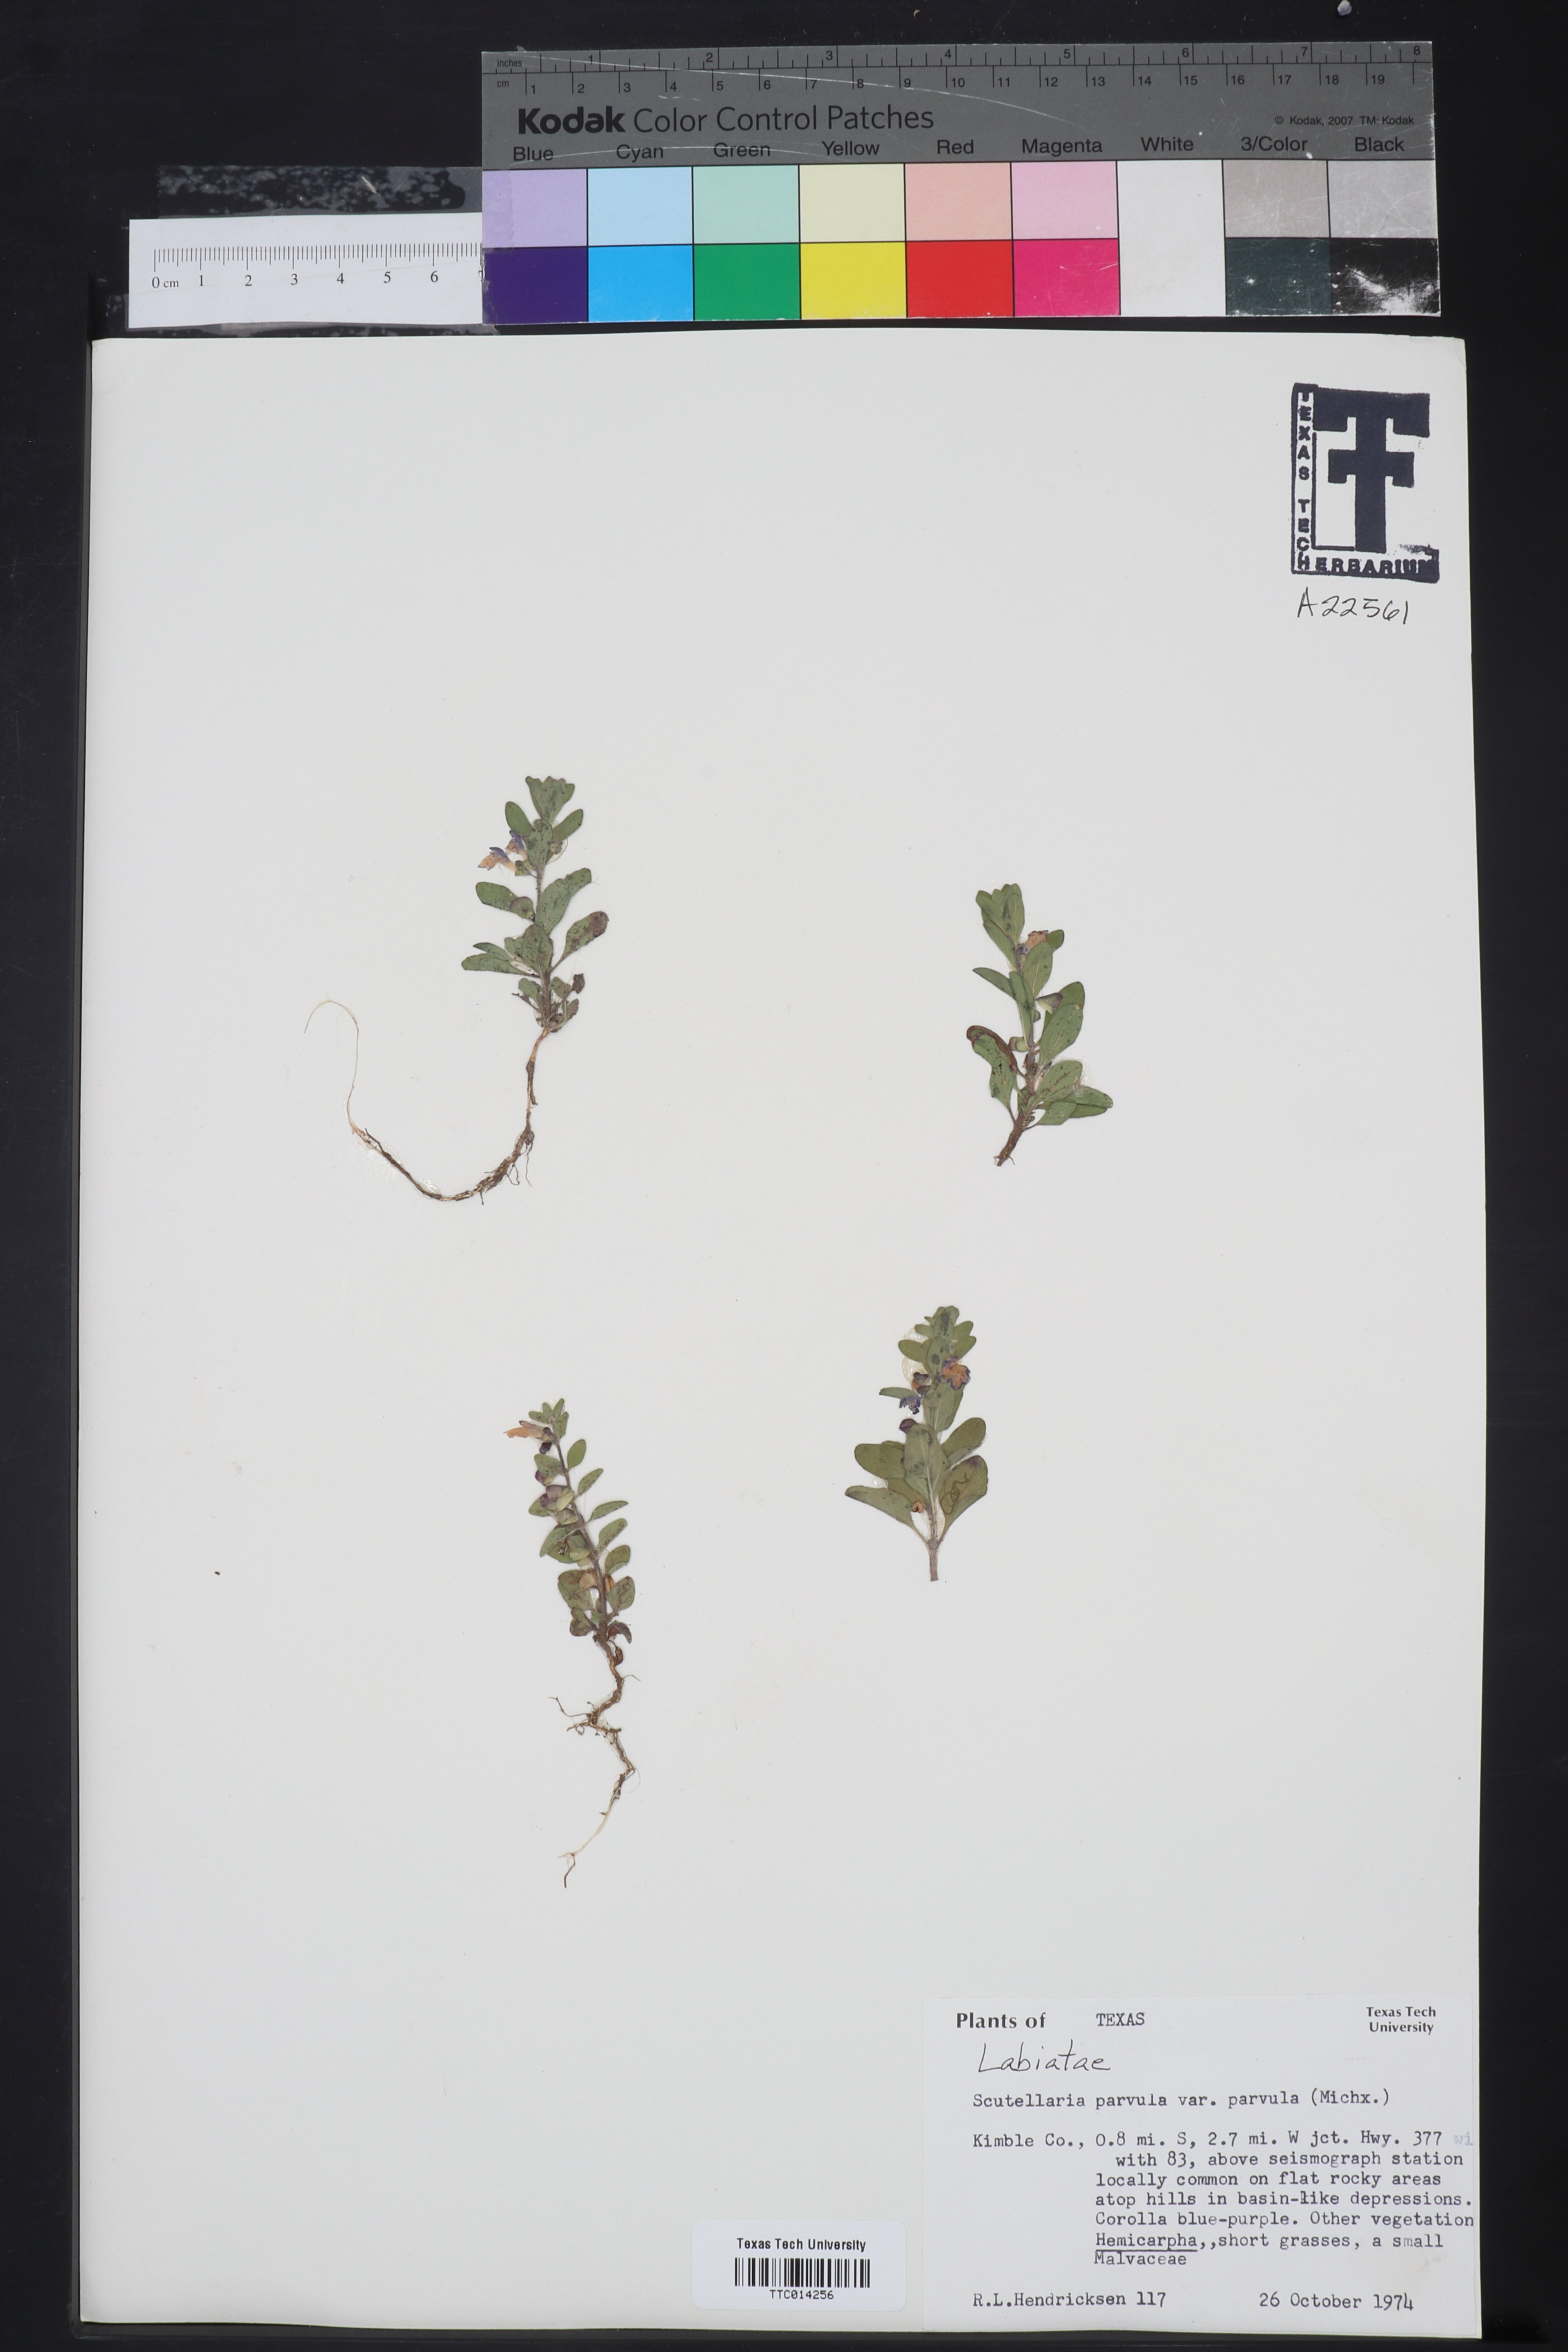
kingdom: Plantae
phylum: Tracheophyta
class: Magnoliopsida
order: Lamiales
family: Lamiaceae
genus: Scutellaria
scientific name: Scutellaria parvula
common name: Little scullcap
